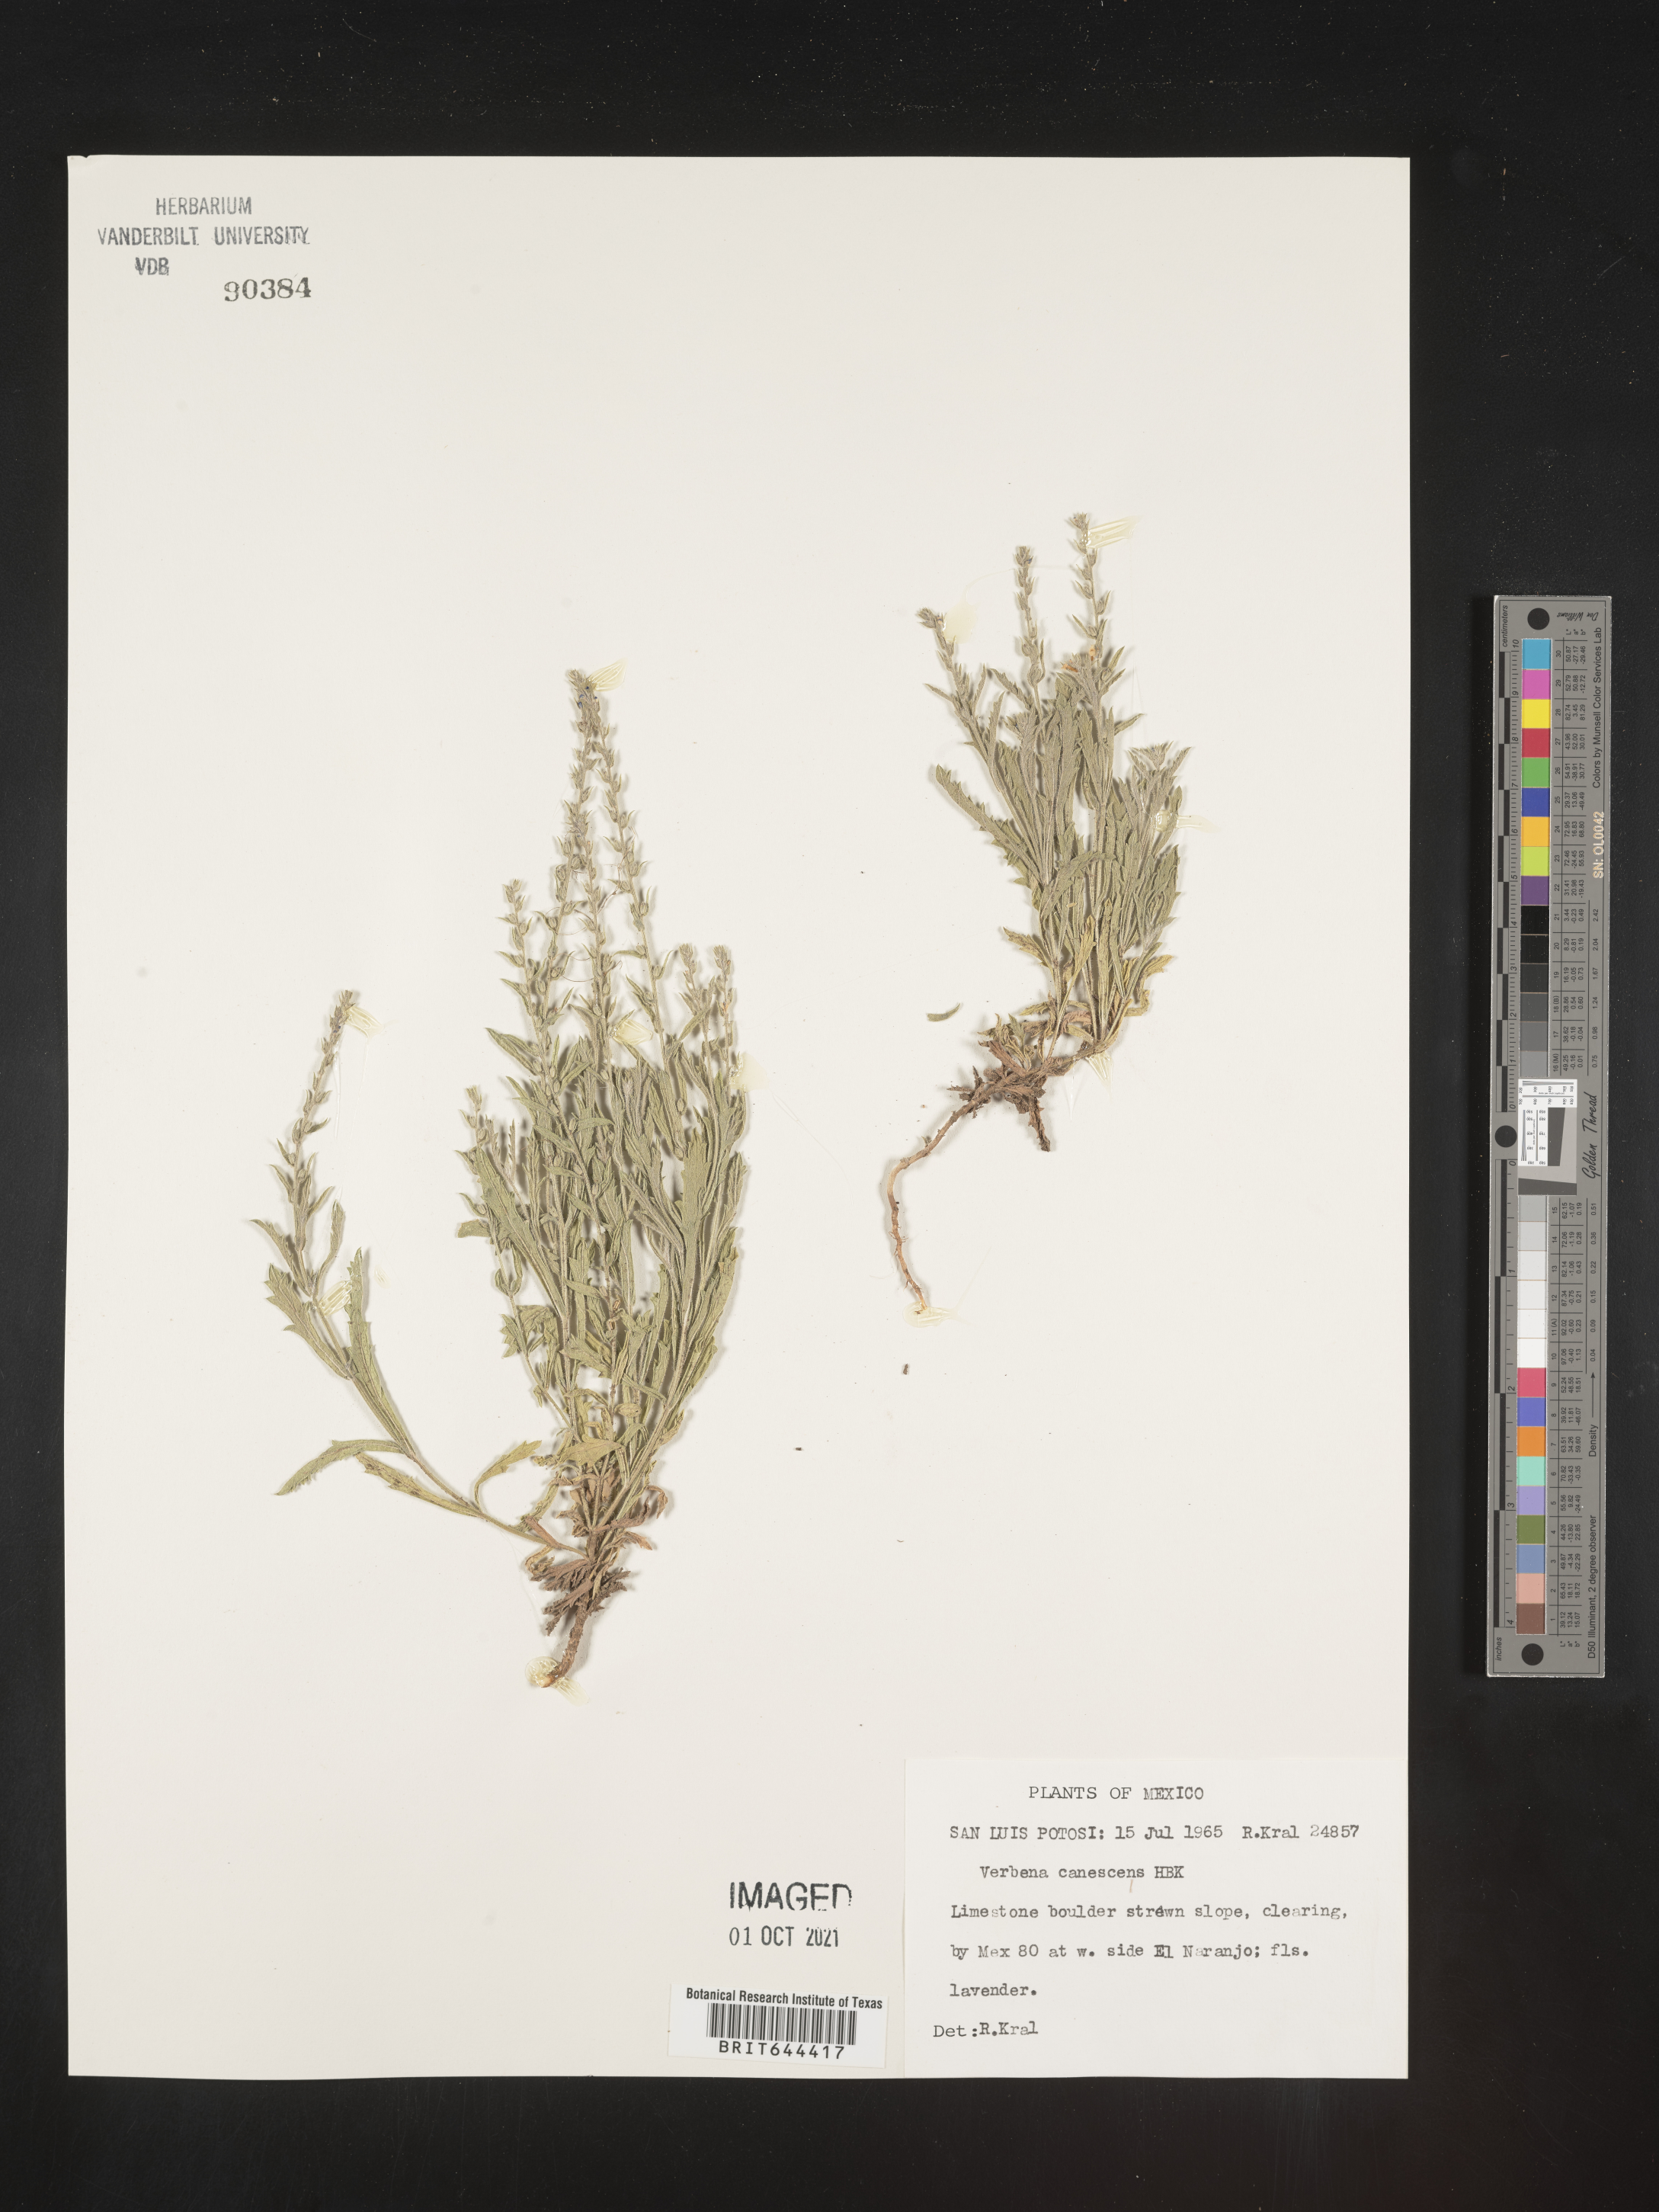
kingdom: Plantae
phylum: Tracheophyta
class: Magnoliopsida
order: Lamiales
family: Verbenaceae
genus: Verbena
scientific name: Verbena
